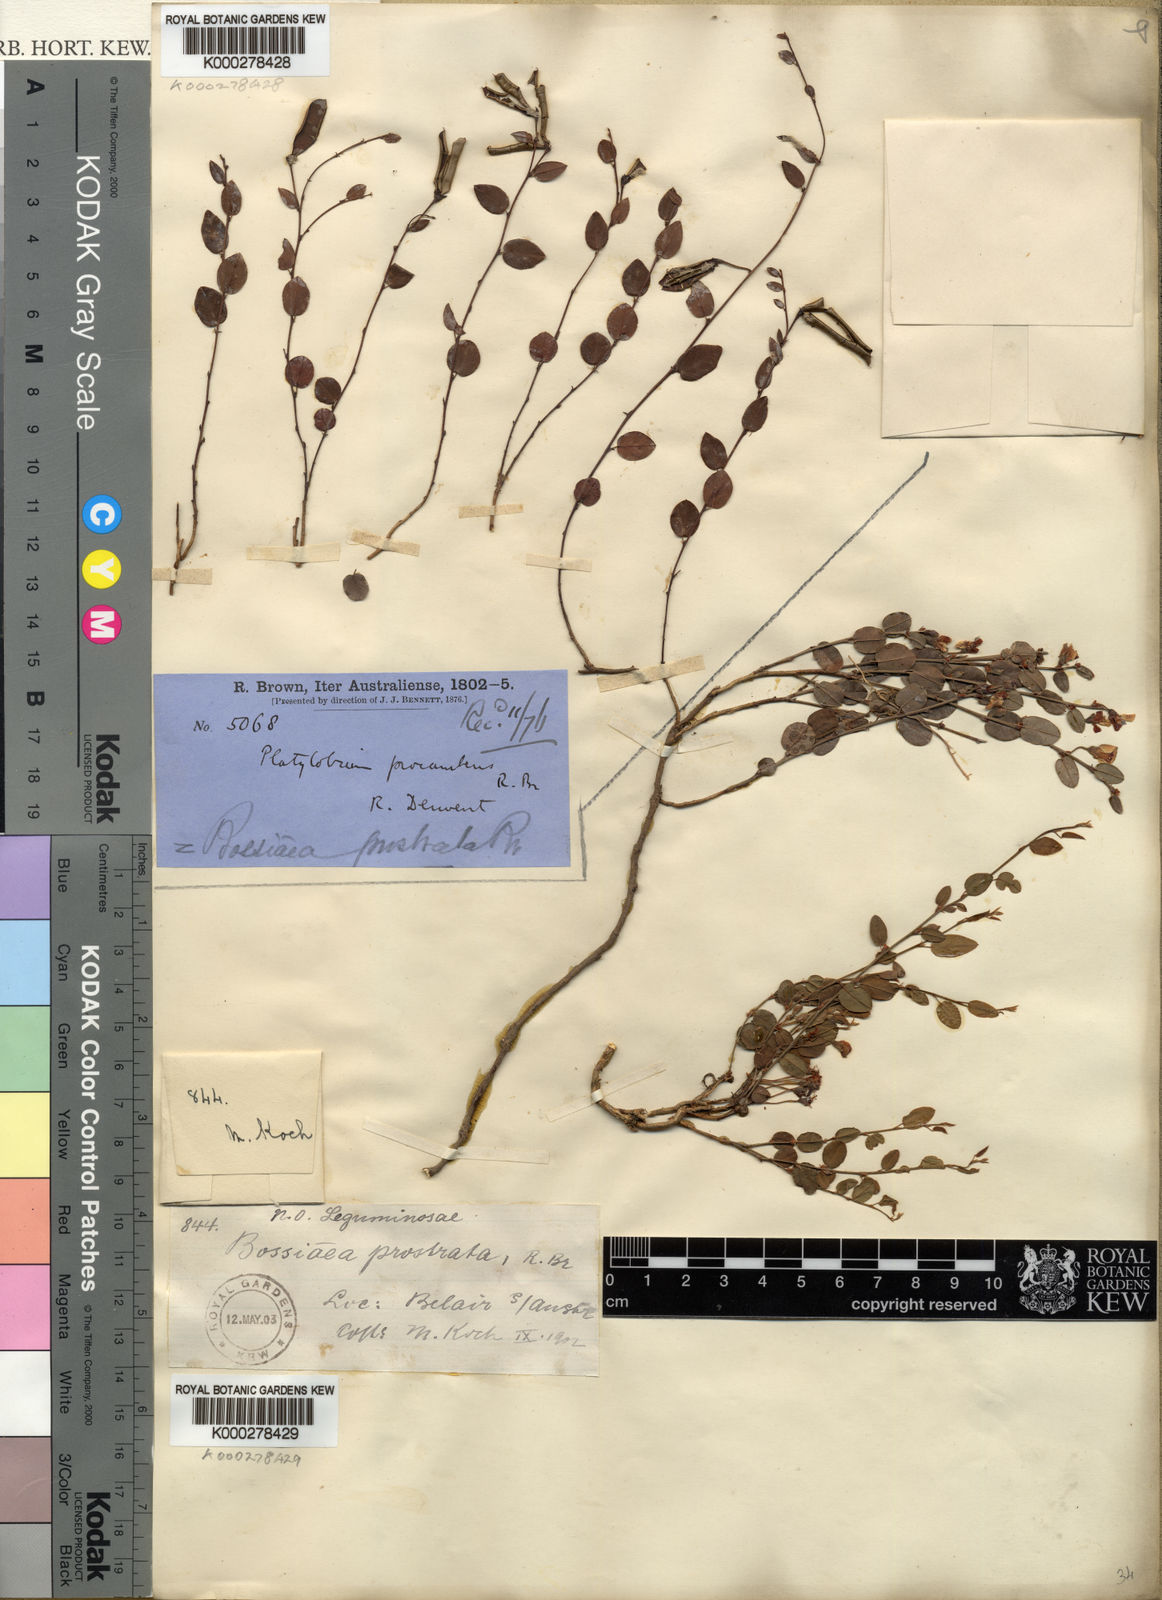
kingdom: Plantae
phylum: Tracheophyta
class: Magnoliopsida
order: Fabales
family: Fabaceae
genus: Bossiaea
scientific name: Bossiaea prostrata
